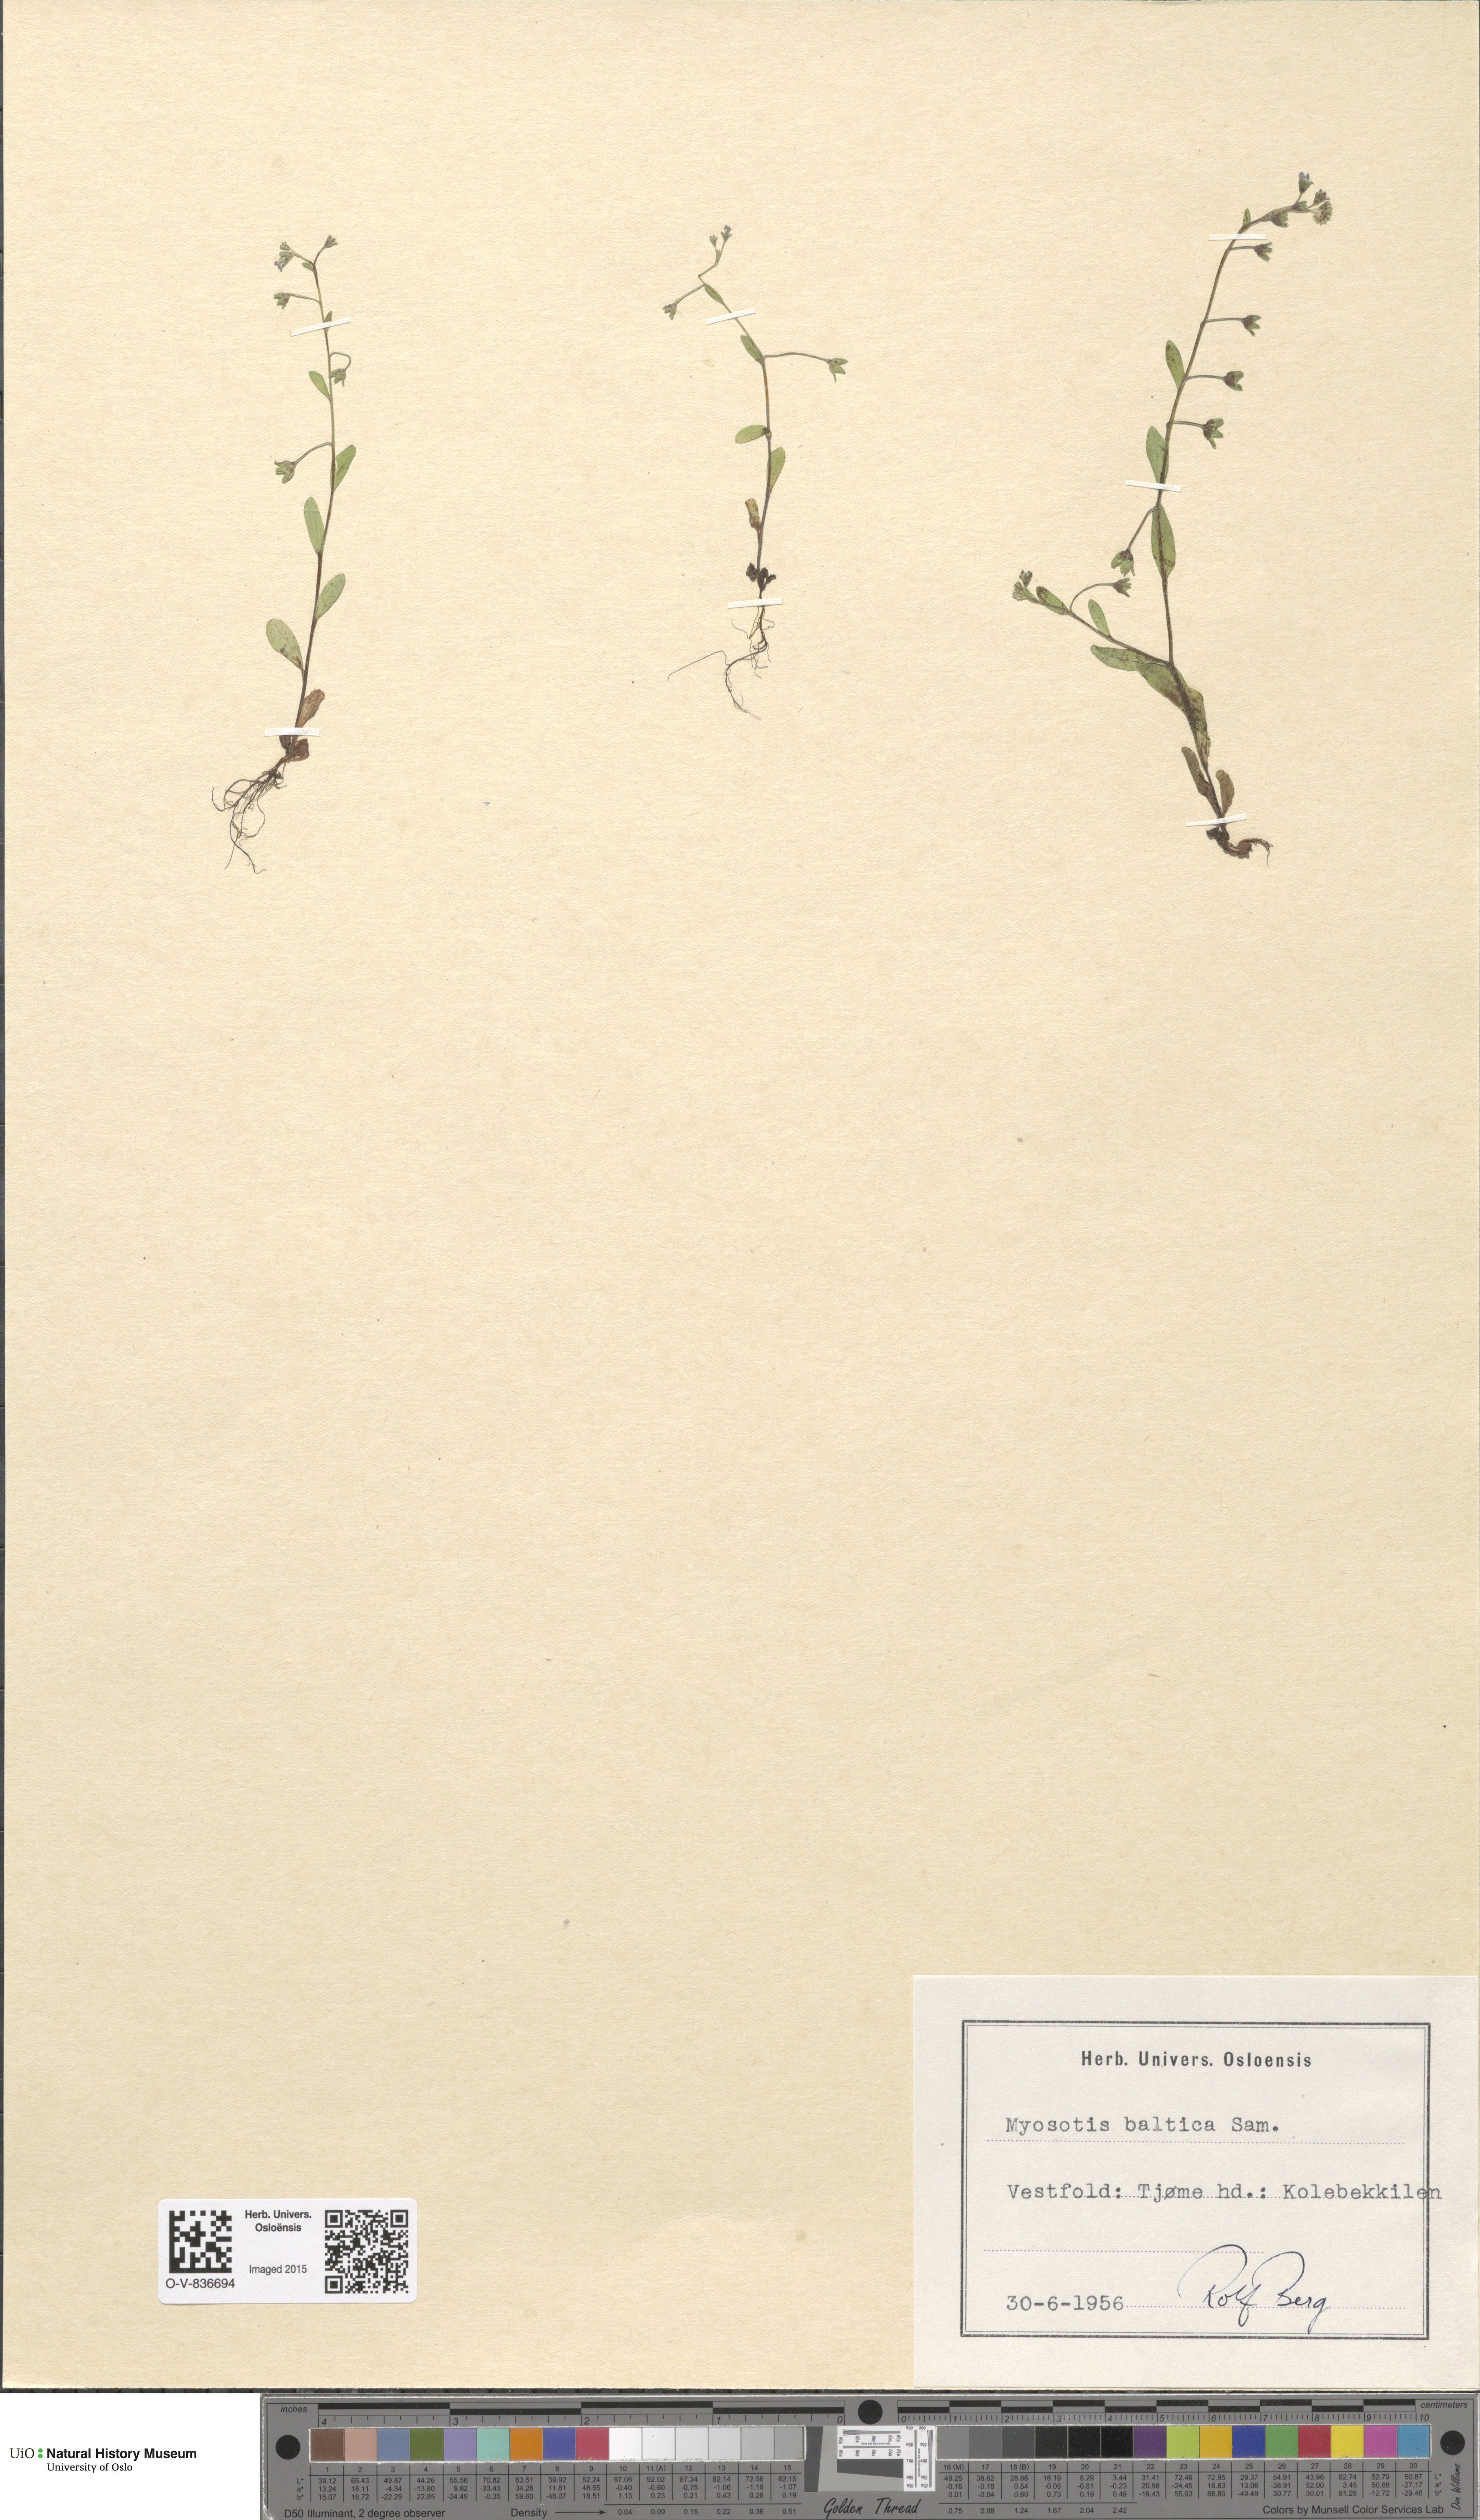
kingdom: Plantae
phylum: Tracheophyta
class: Magnoliopsida
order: Boraginales
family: Boraginaceae
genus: Myosotis
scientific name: Myosotis laxa
